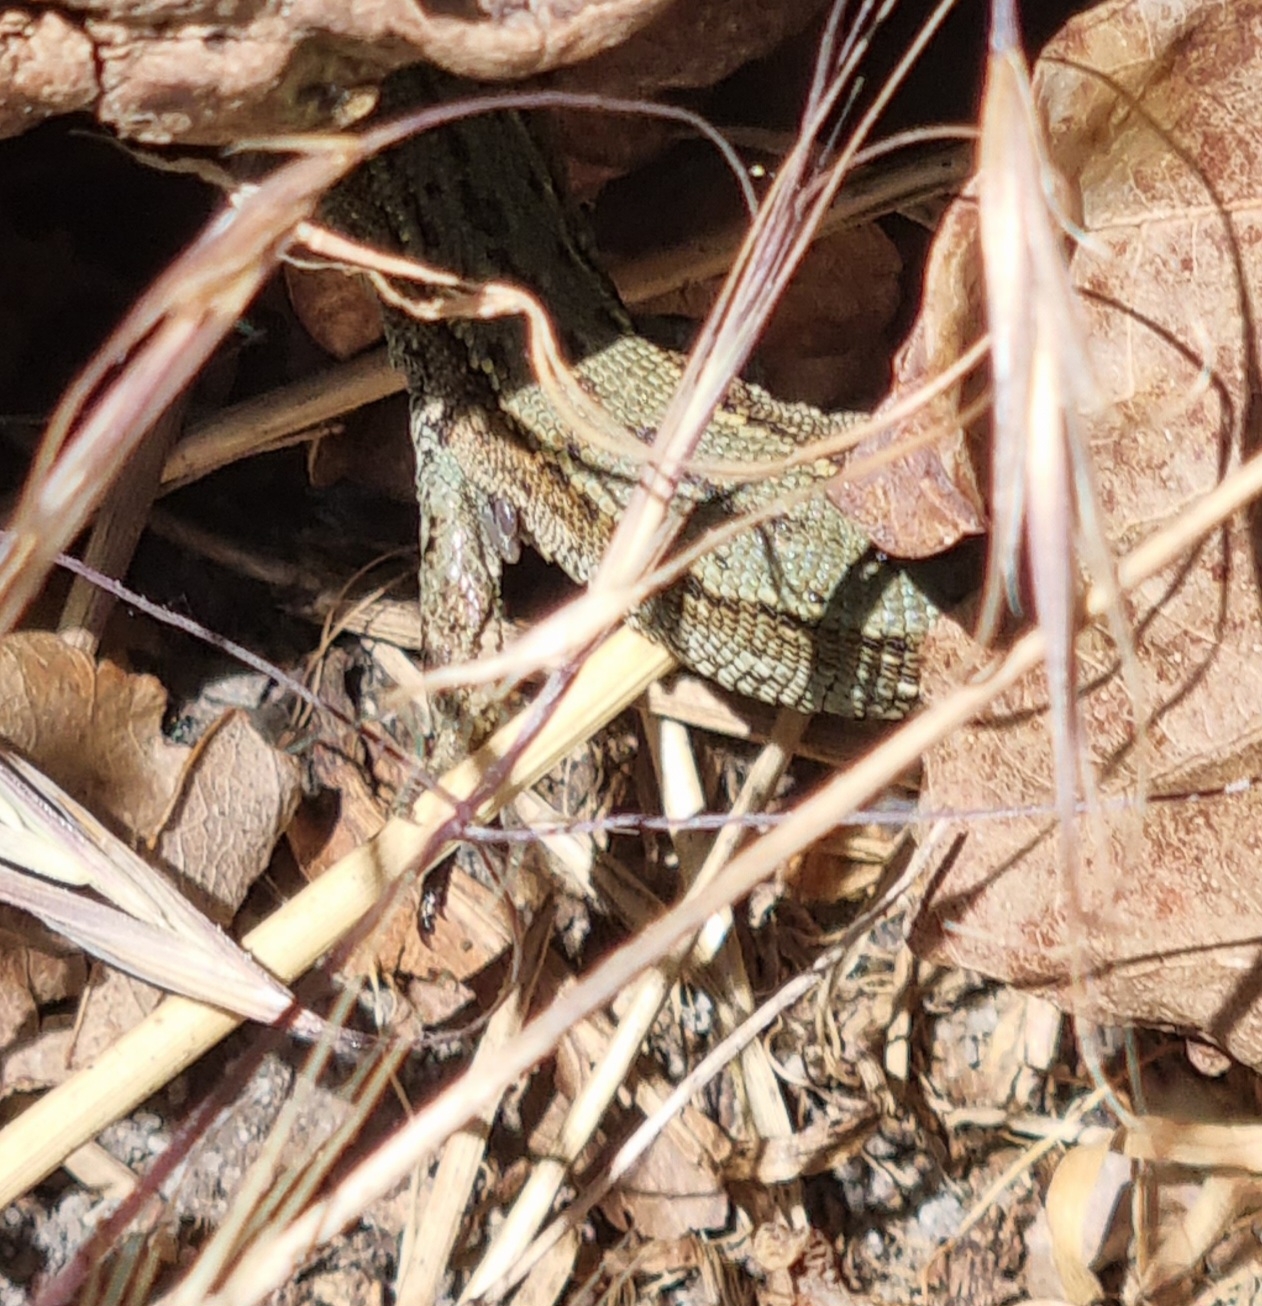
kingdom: Animalia
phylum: Chordata
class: Squamata
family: Lacertidae
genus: Zootoca
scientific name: Zootoca vivipara
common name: Skovfirben
